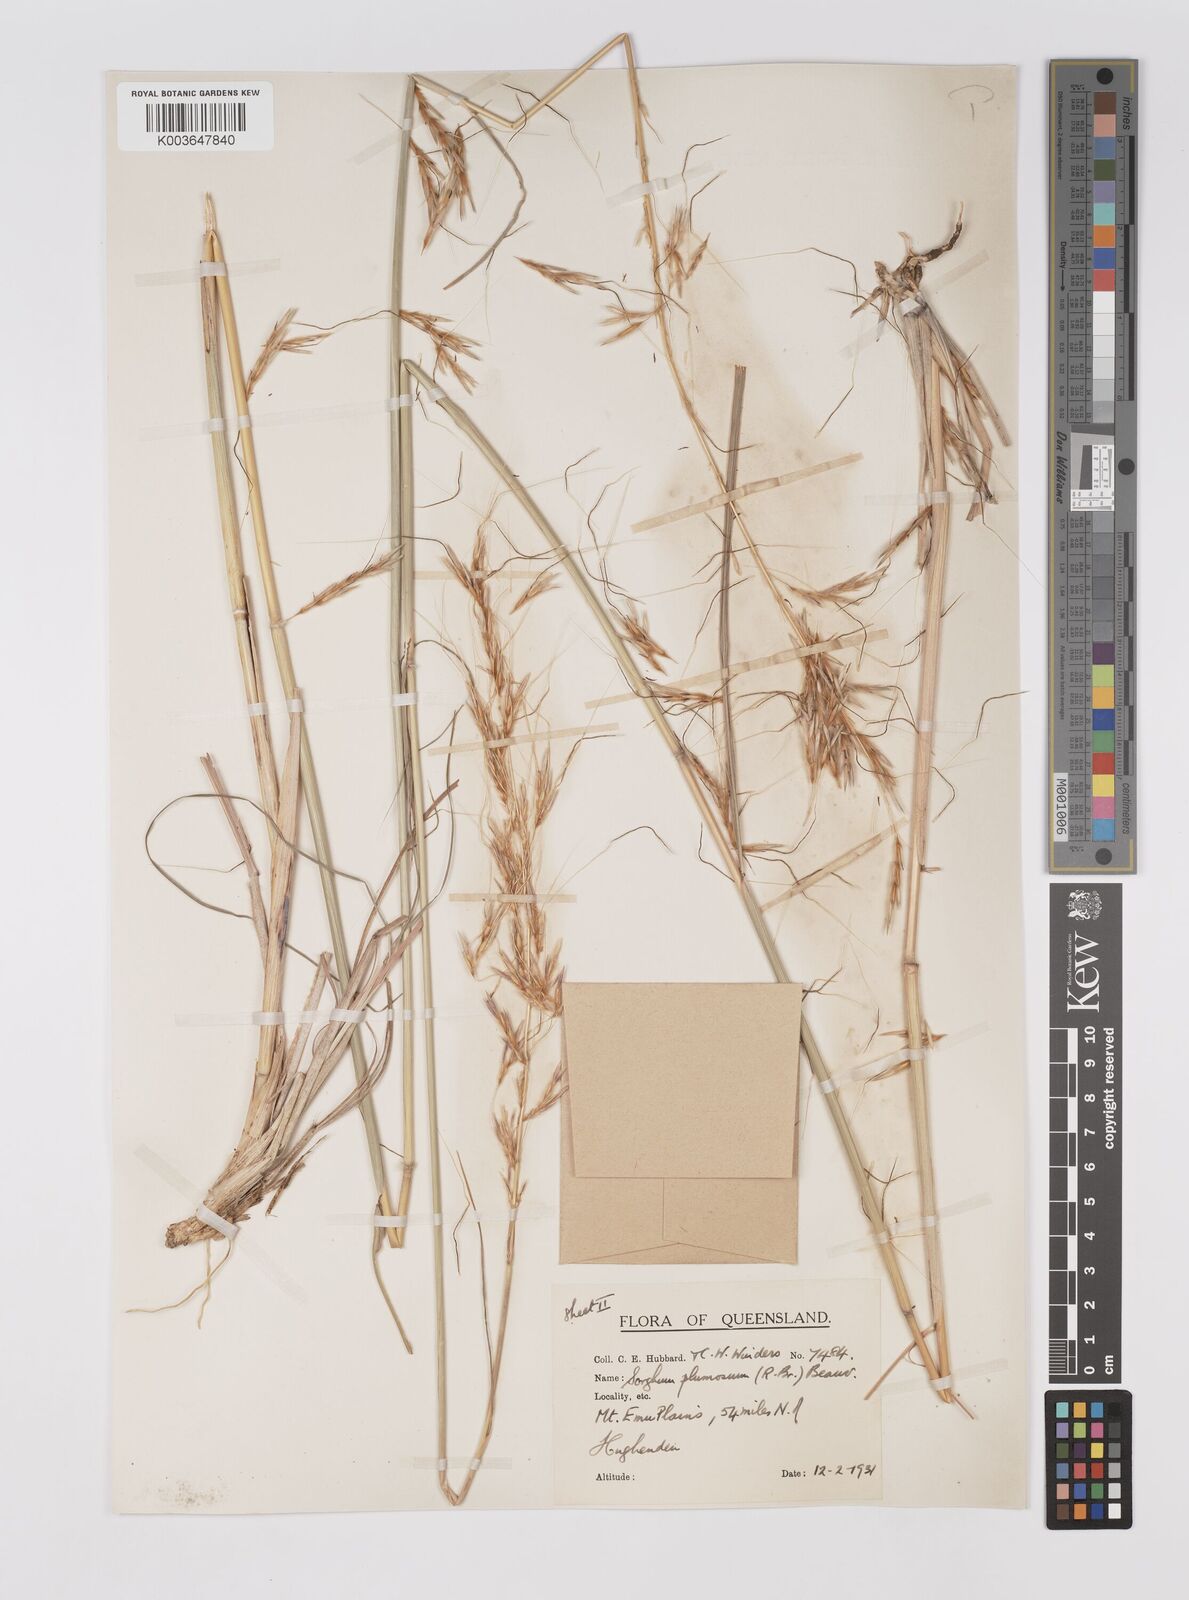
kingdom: Plantae
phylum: Tracheophyta
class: Liliopsida
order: Poales
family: Poaceae
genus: Sarga
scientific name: Sarga plumosa
